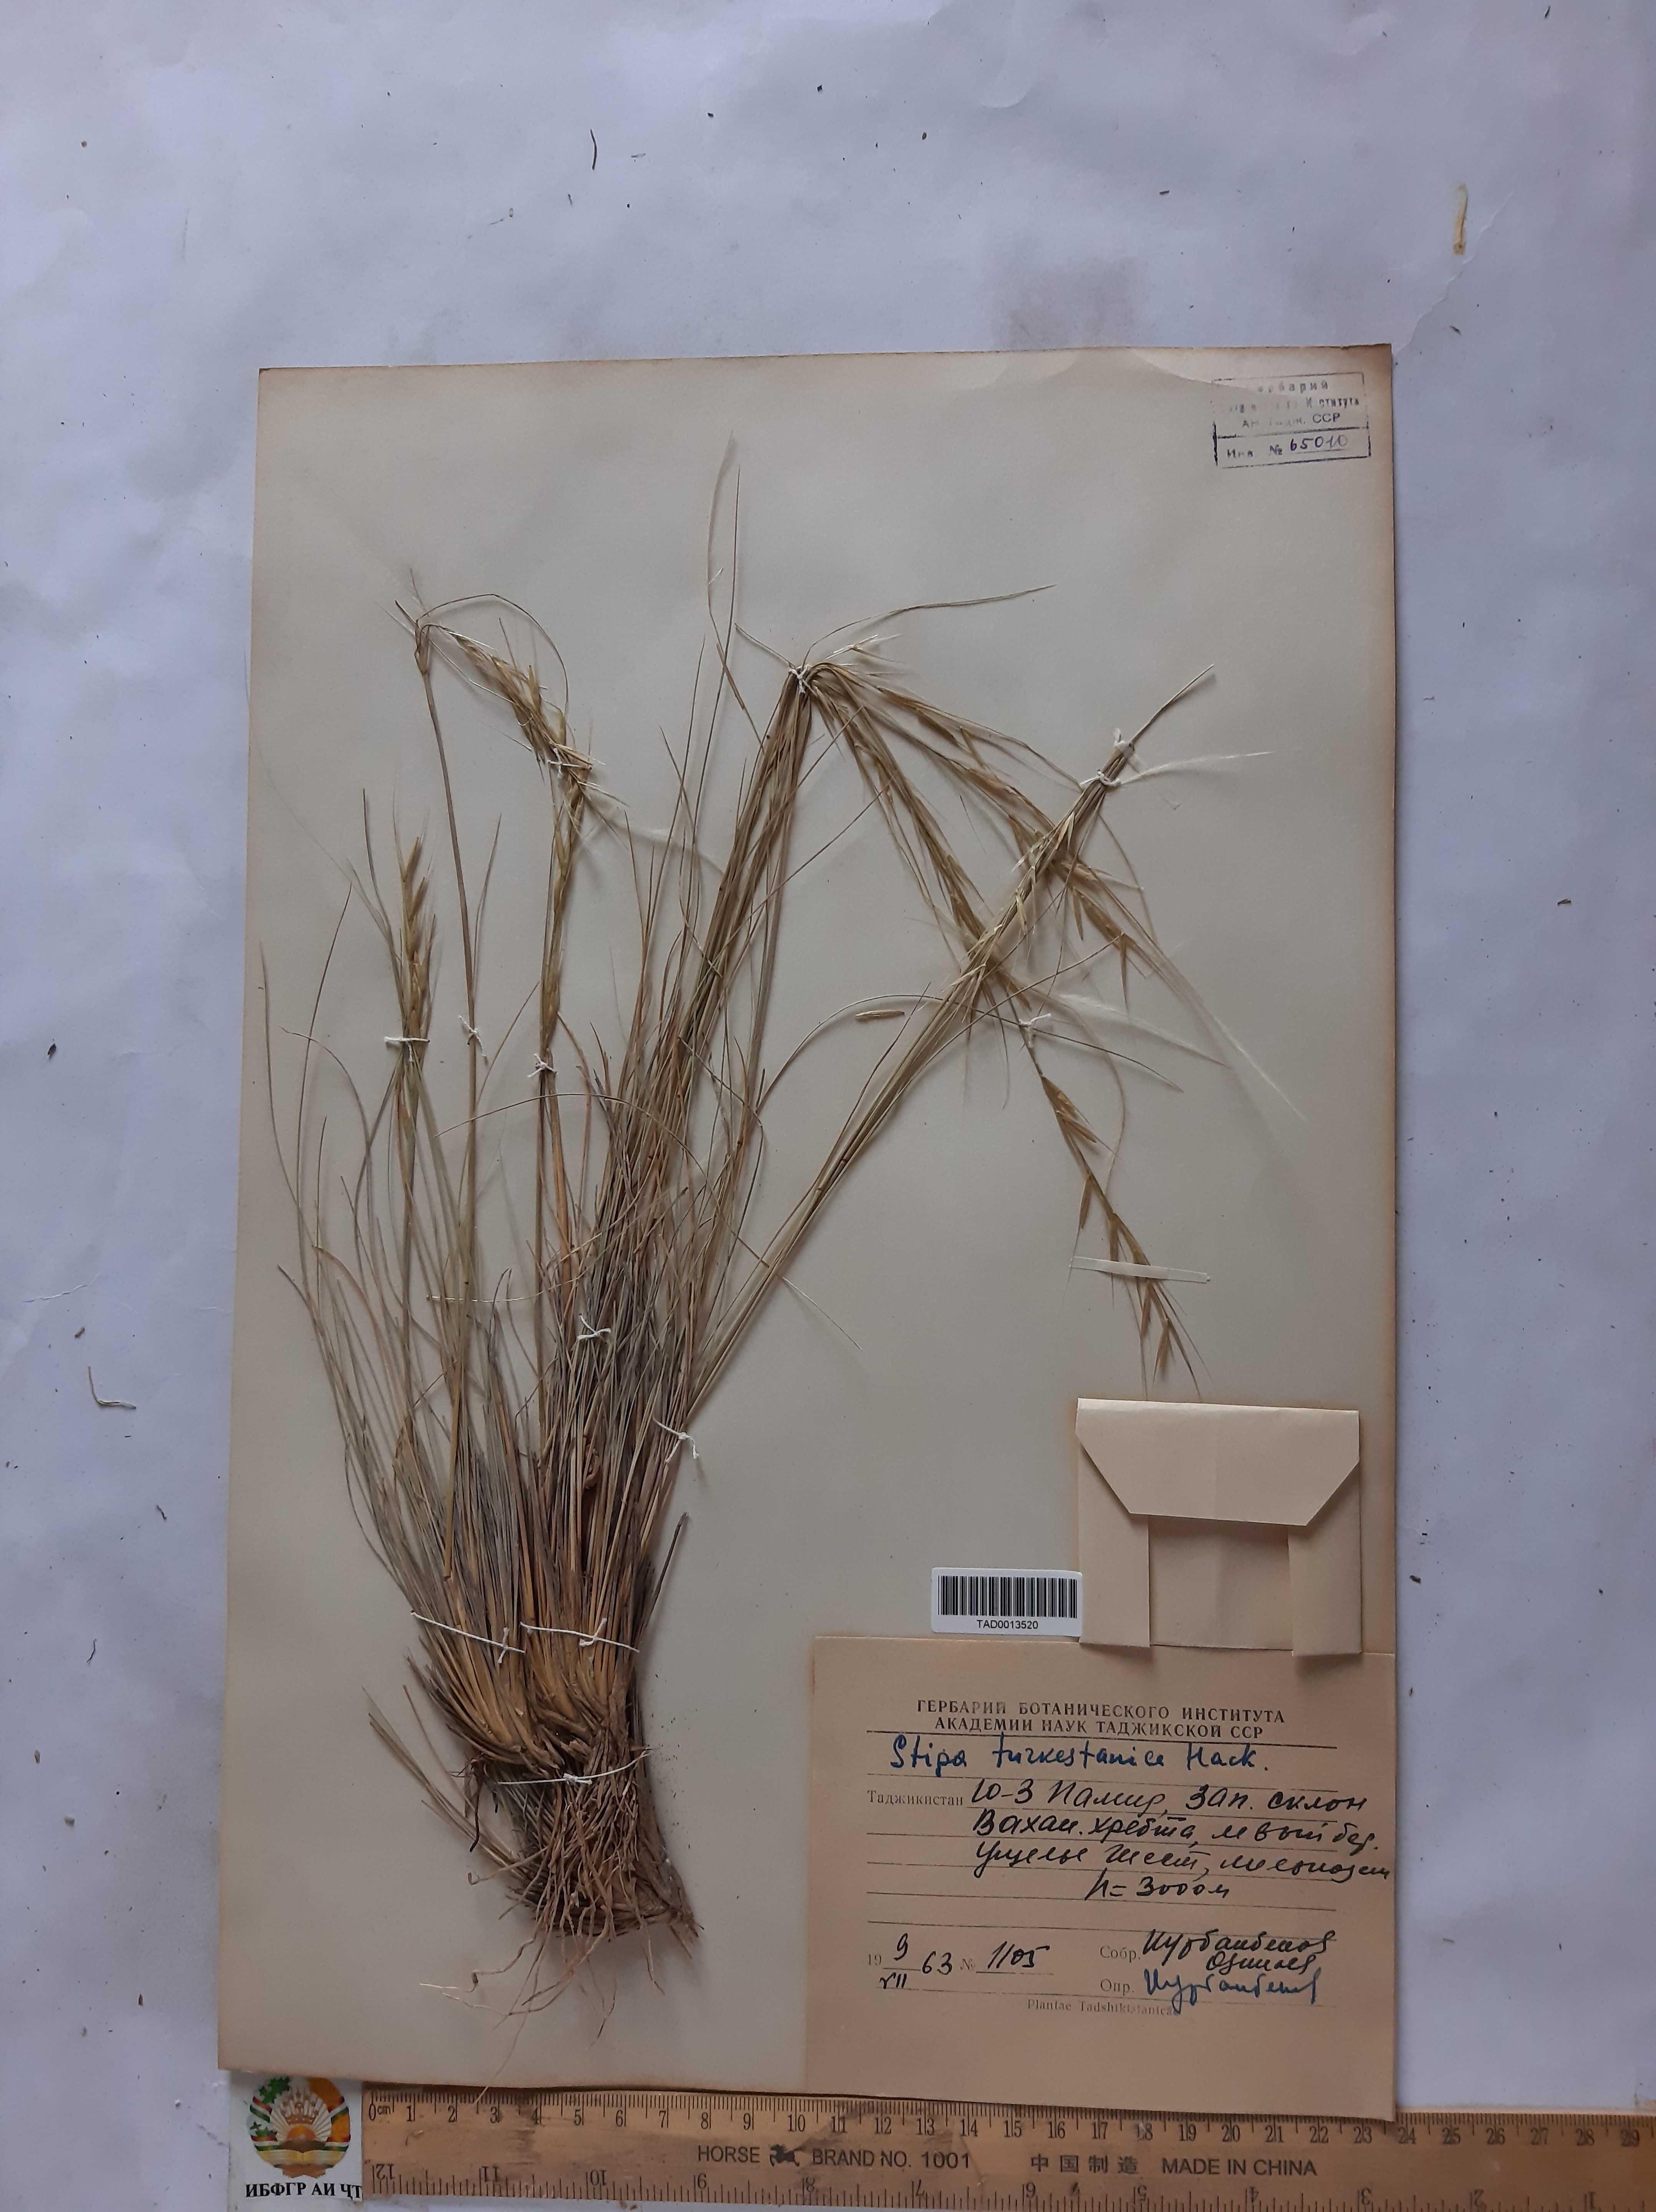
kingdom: Plantae
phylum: Tracheophyta
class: Liliopsida
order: Poales
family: Poaceae
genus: Stipa
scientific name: Stipa turkestanica
